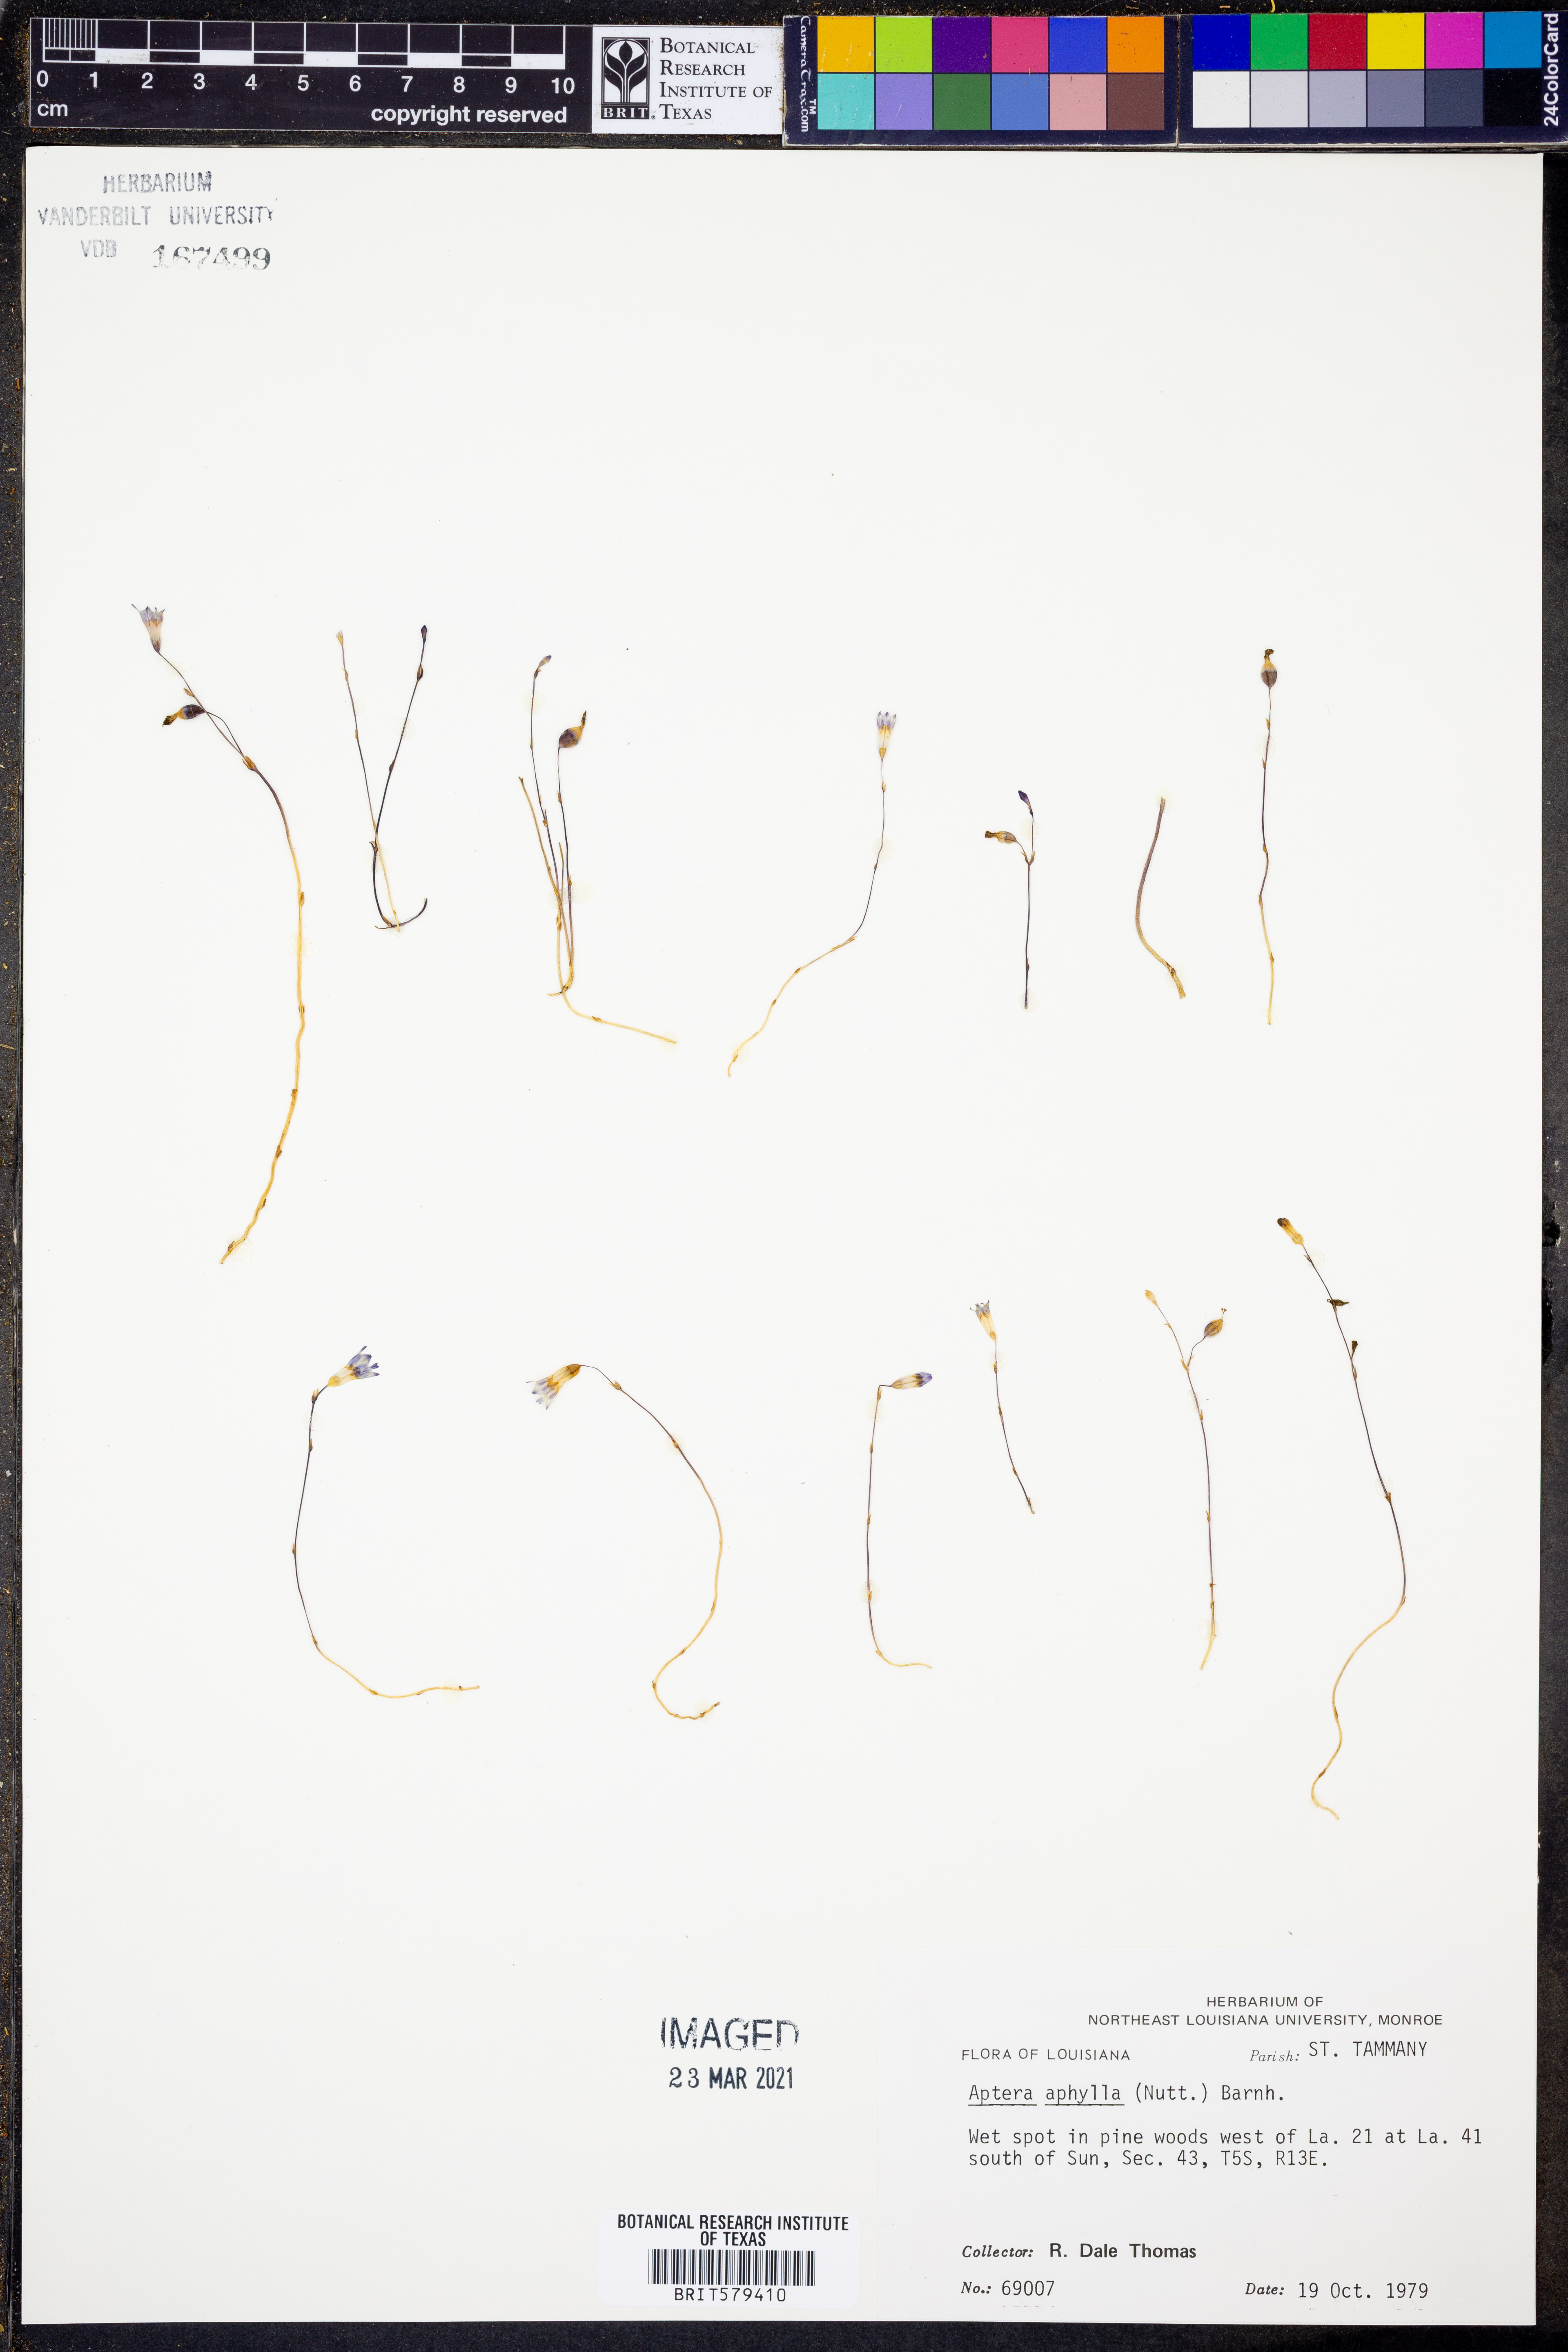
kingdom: Plantae
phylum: Tracheophyta
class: Liliopsida
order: Dioscoreales
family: Burmanniaceae
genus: Apteria
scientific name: Apteria aphylla
